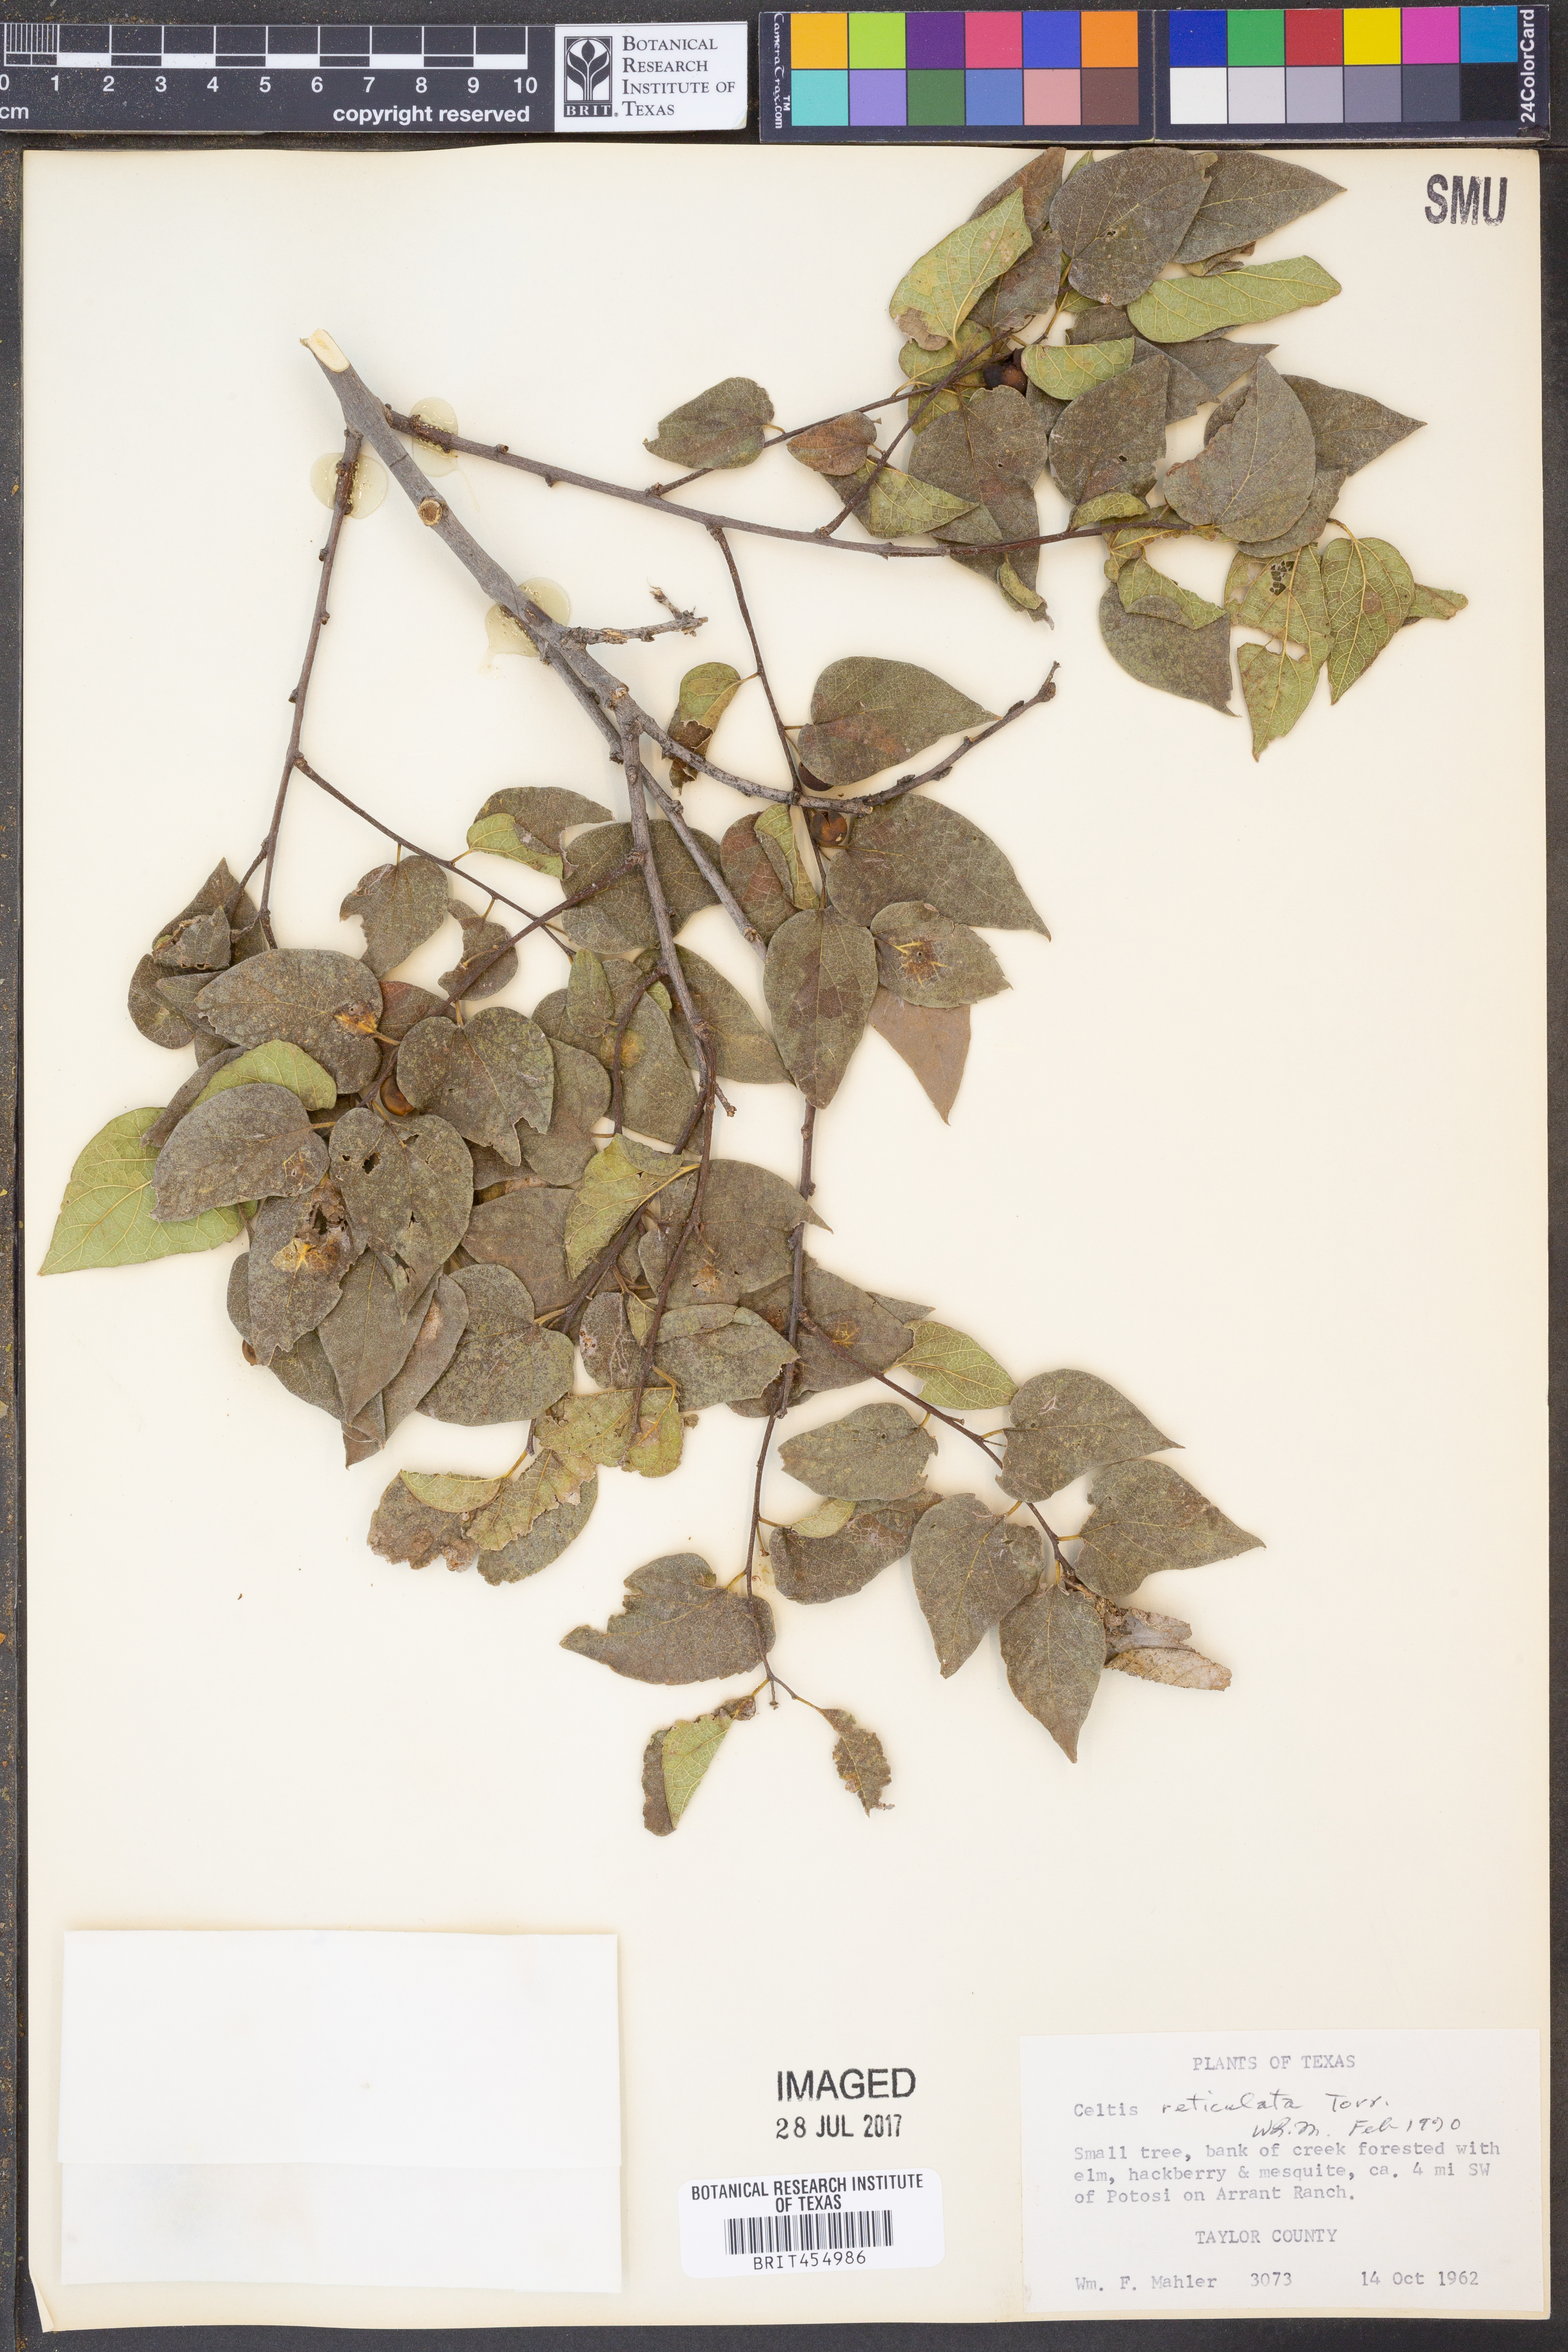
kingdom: Plantae
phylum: Tracheophyta
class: Magnoliopsida
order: Rosales
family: Cannabaceae
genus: Celtis
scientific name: Celtis reticulata
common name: Netleaf hackberry
